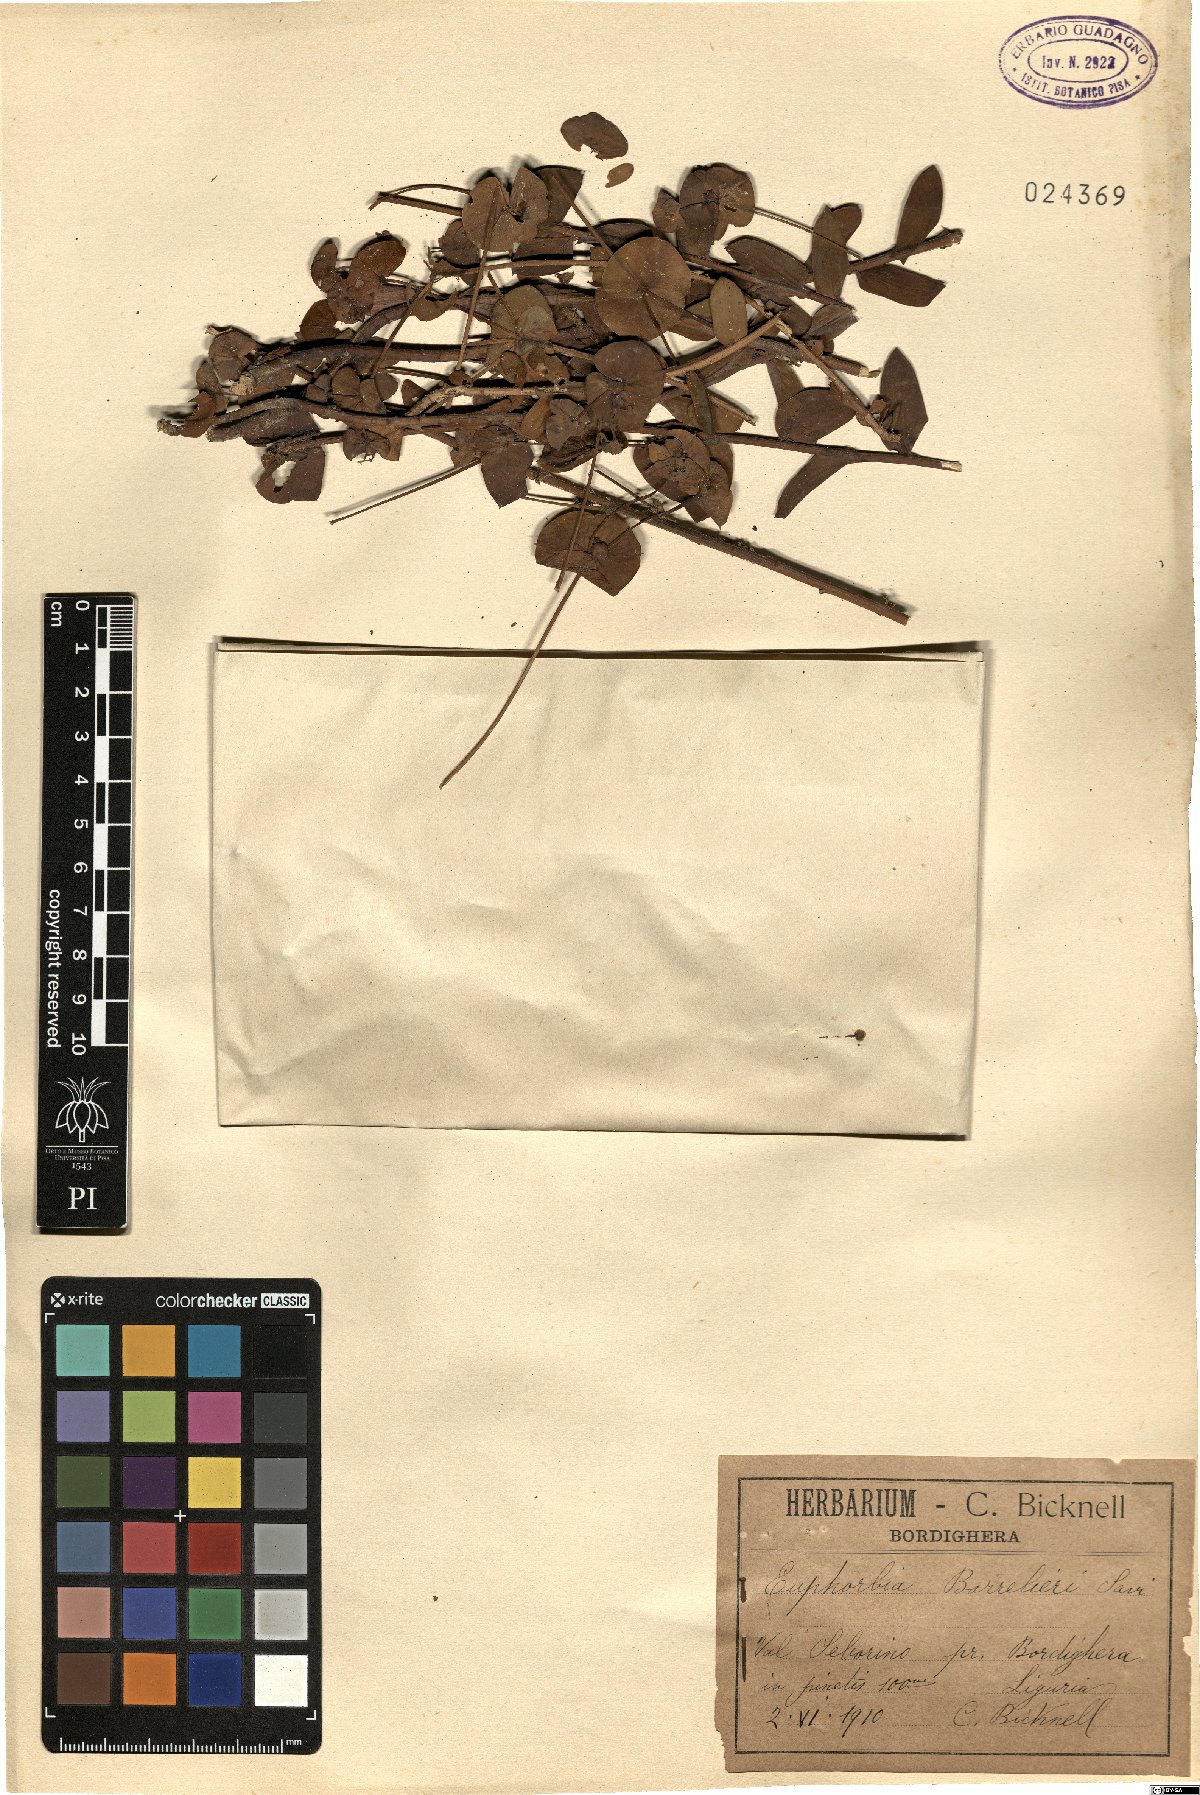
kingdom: Plantae
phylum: Tracheophyta
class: Magnoliopsida
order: Malpighiales
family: Euphorbiaceae
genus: Euphorbia
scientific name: Euphorbia barrelieri
